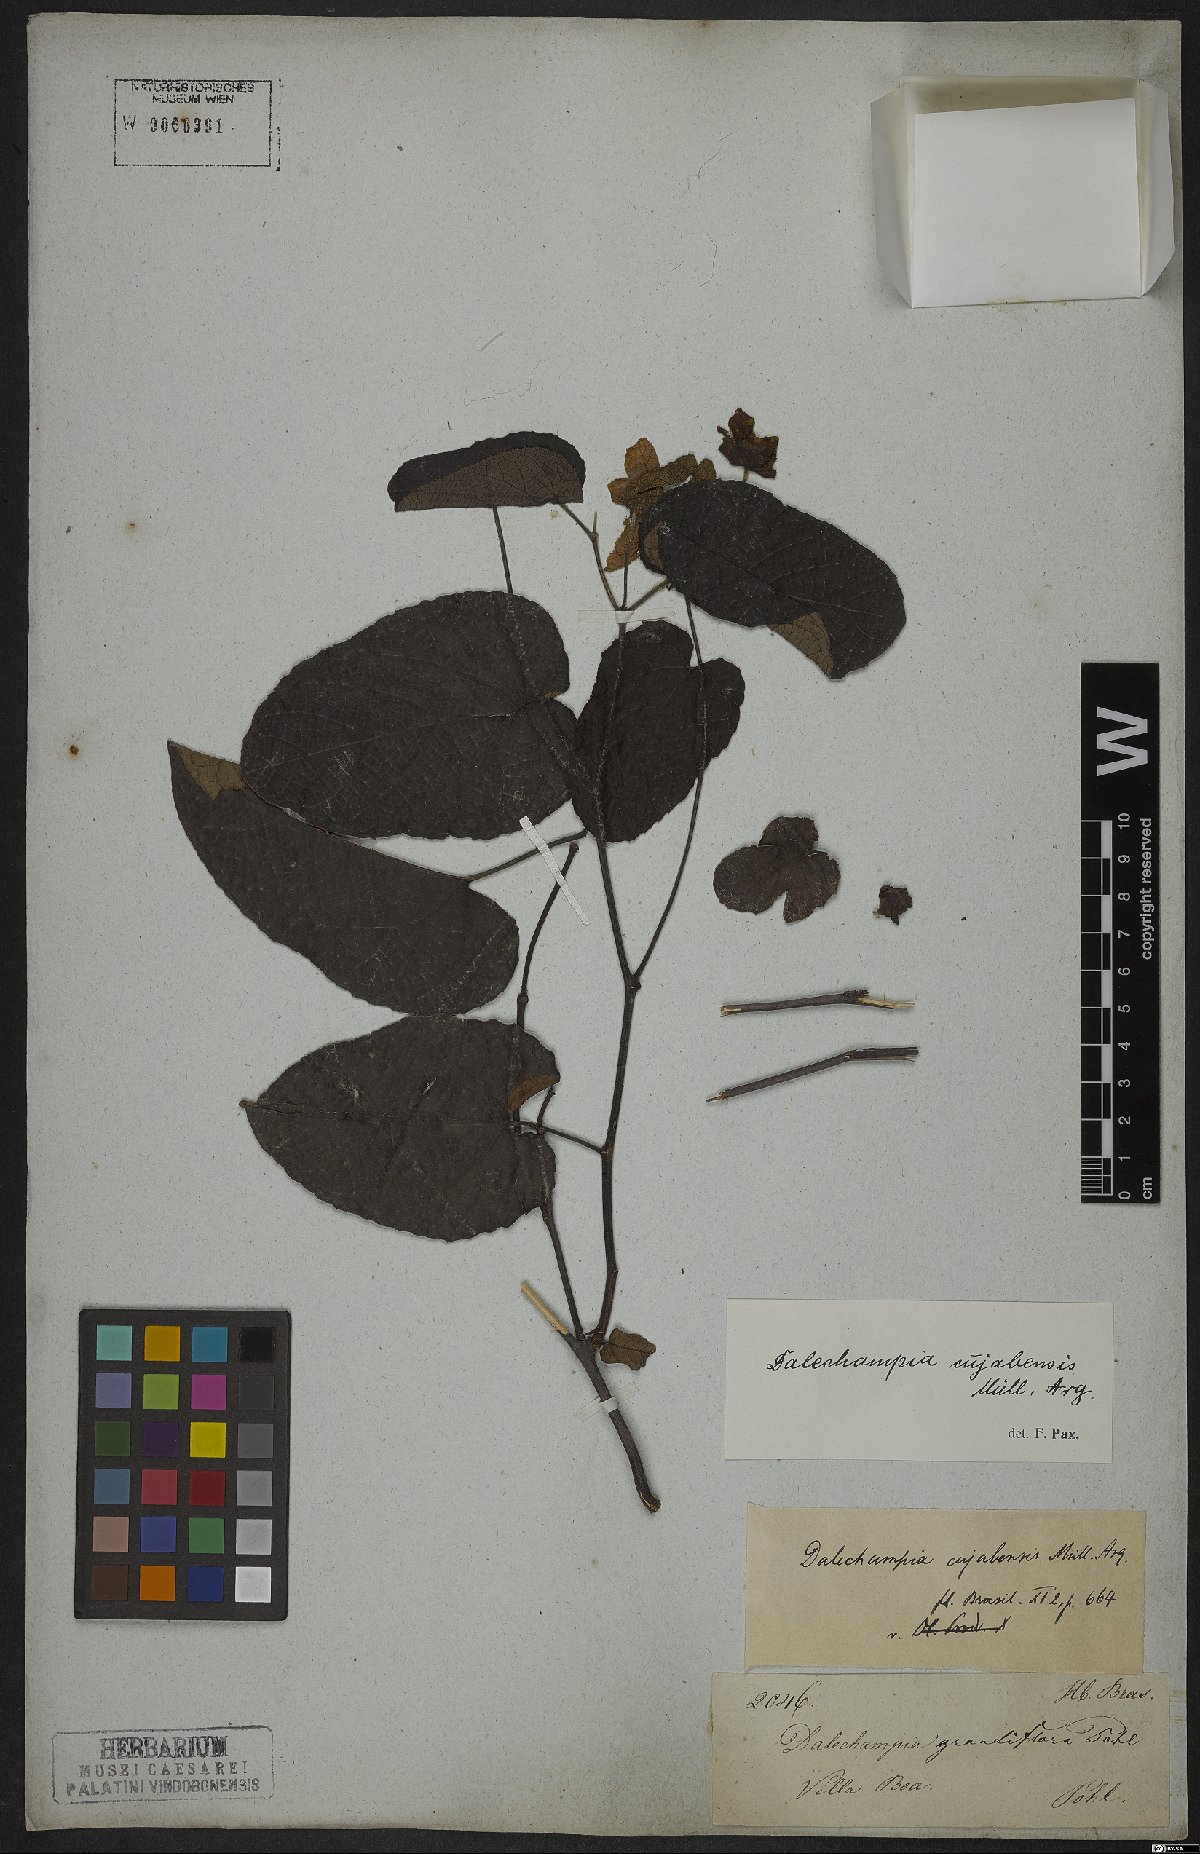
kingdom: Plantae
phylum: Tracheophyta
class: Magnoliopsida
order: Malpighiales
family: Euphorbiaceae
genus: Dalechampia
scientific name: Dalechampia cuyabensis
